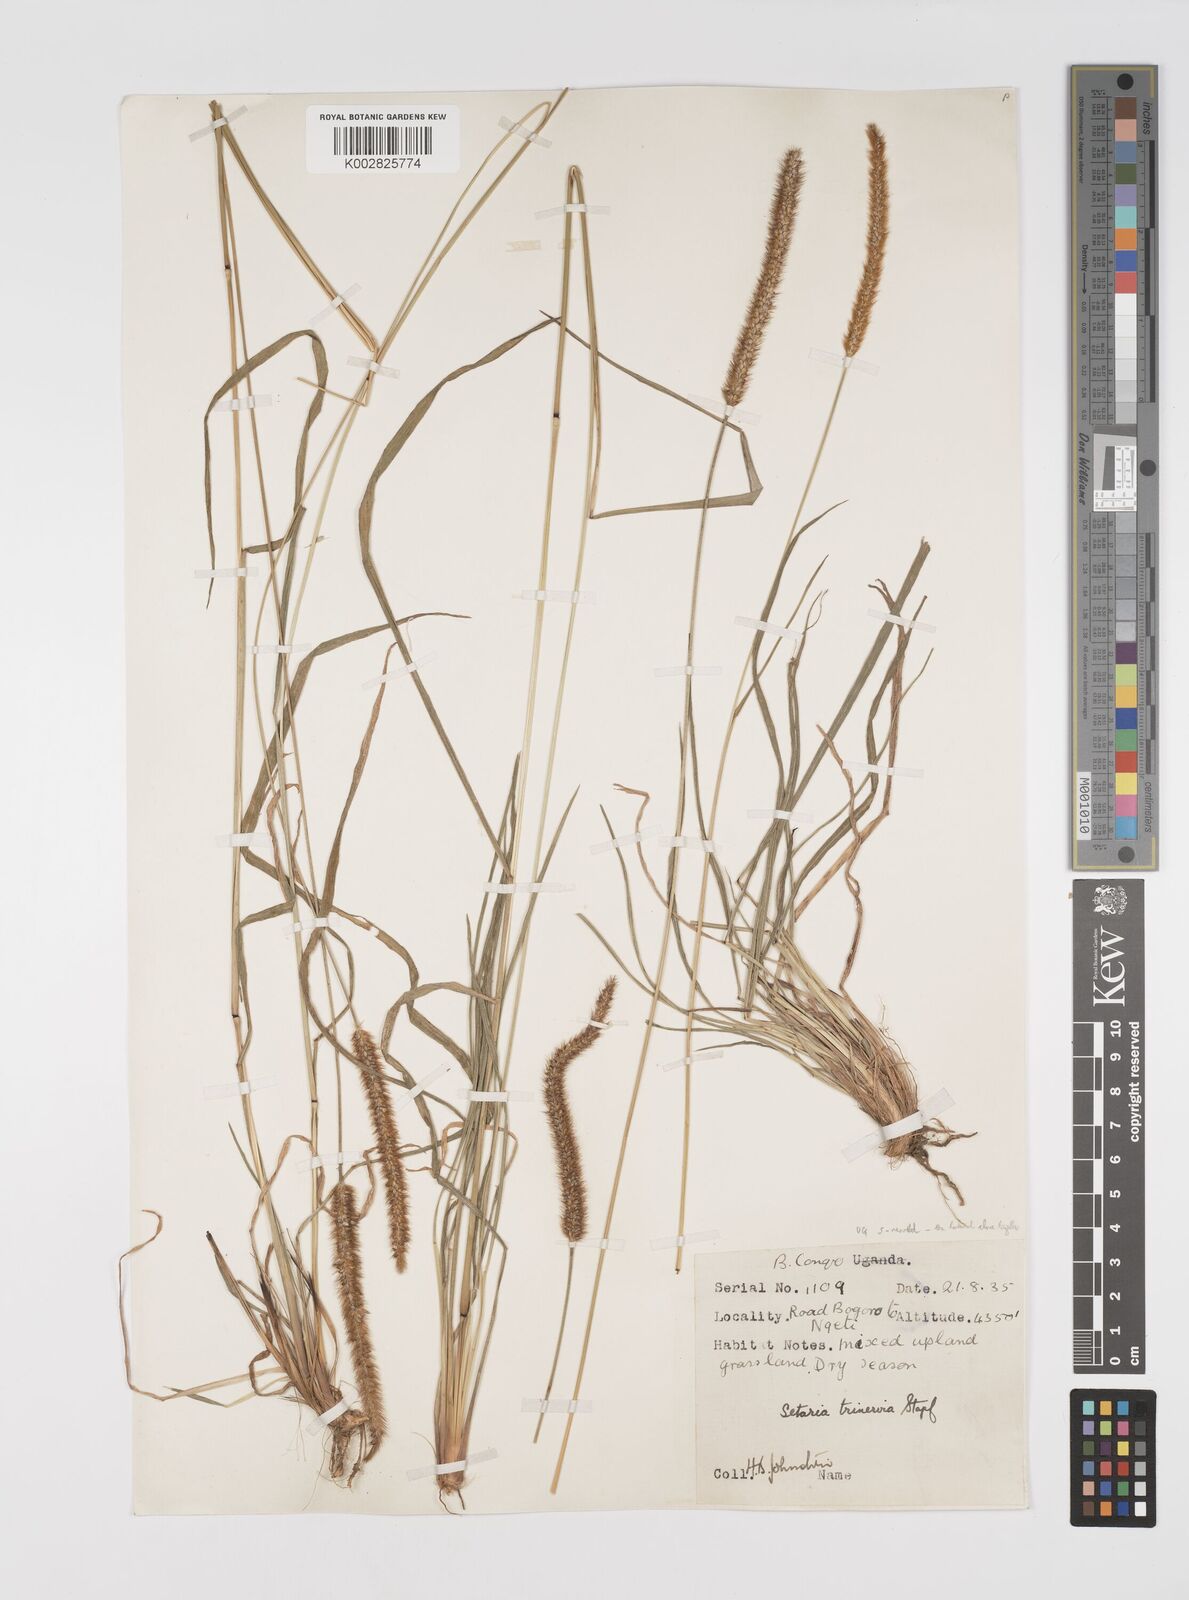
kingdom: Plantae
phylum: Tracheophyta
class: Liliopsida
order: Poales
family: Poaceae
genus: Setaria
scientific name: Setaria sphacelata
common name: African bristlegrass
